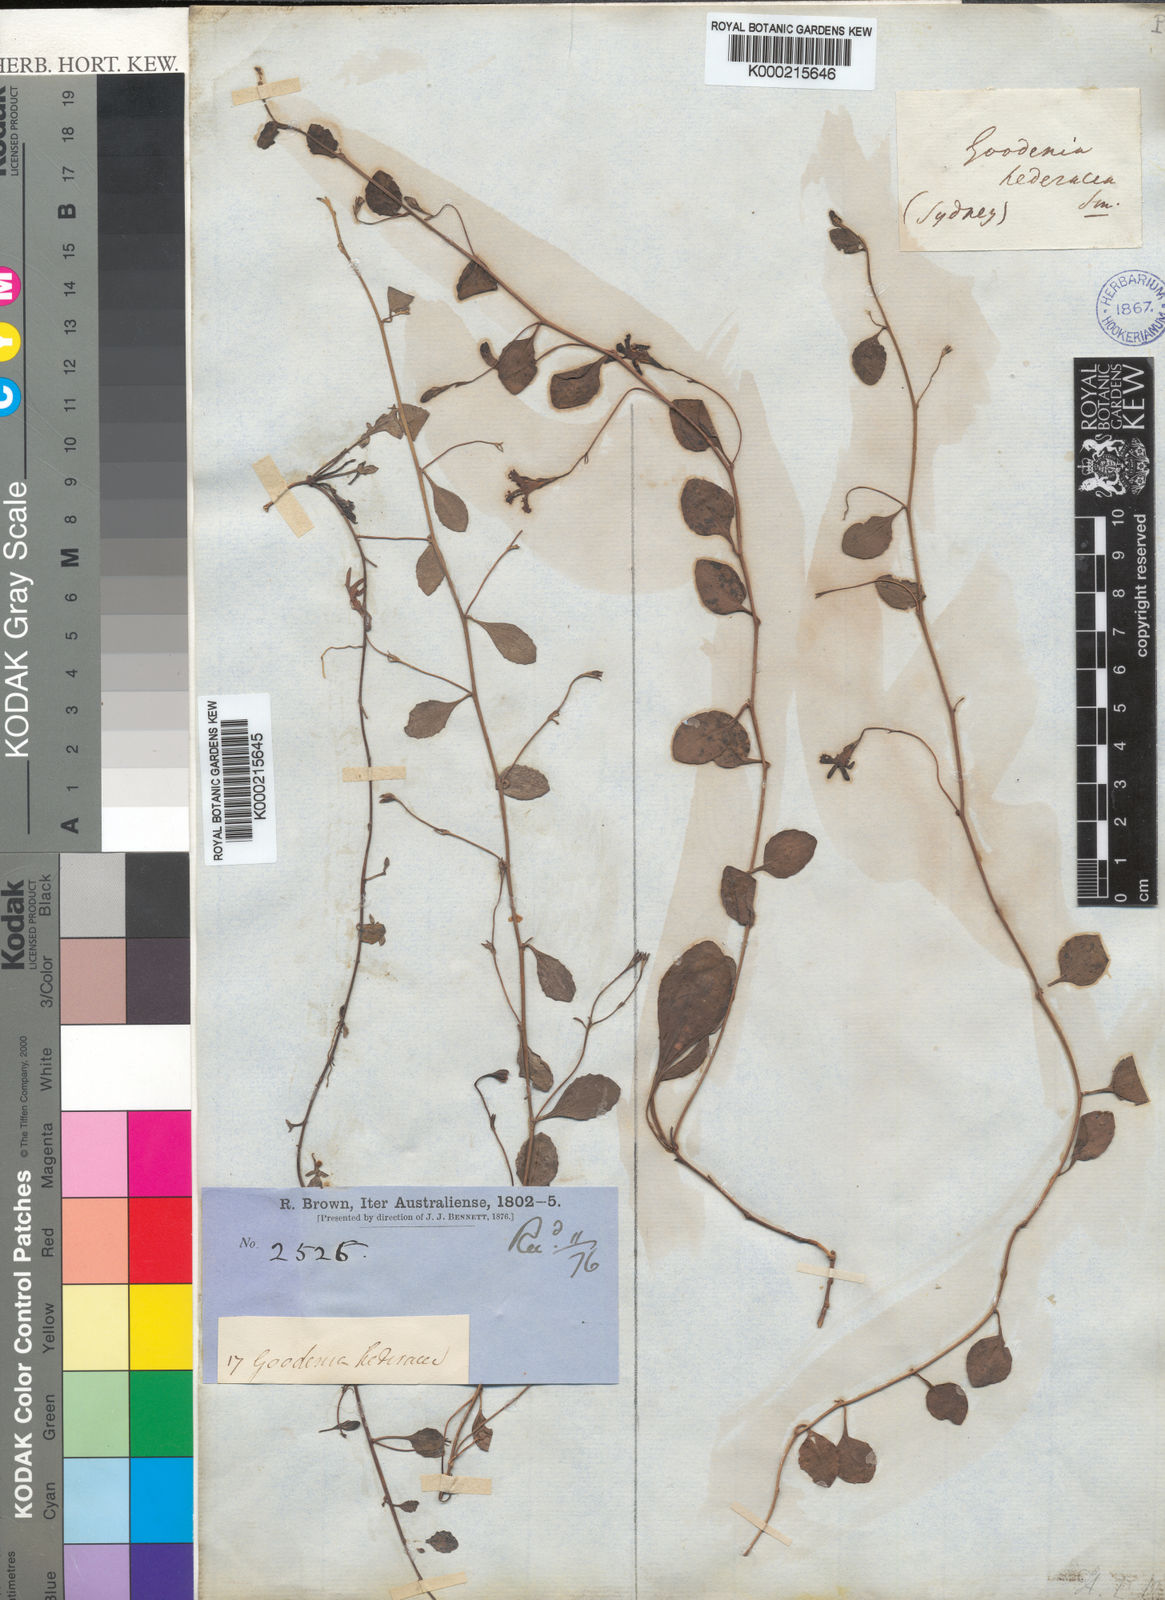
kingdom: Plantae
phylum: Tracheophyta
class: Magnoliopsida
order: Asterales
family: Goodeniaceae
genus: Goodenia
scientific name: Goodenia hederacea
